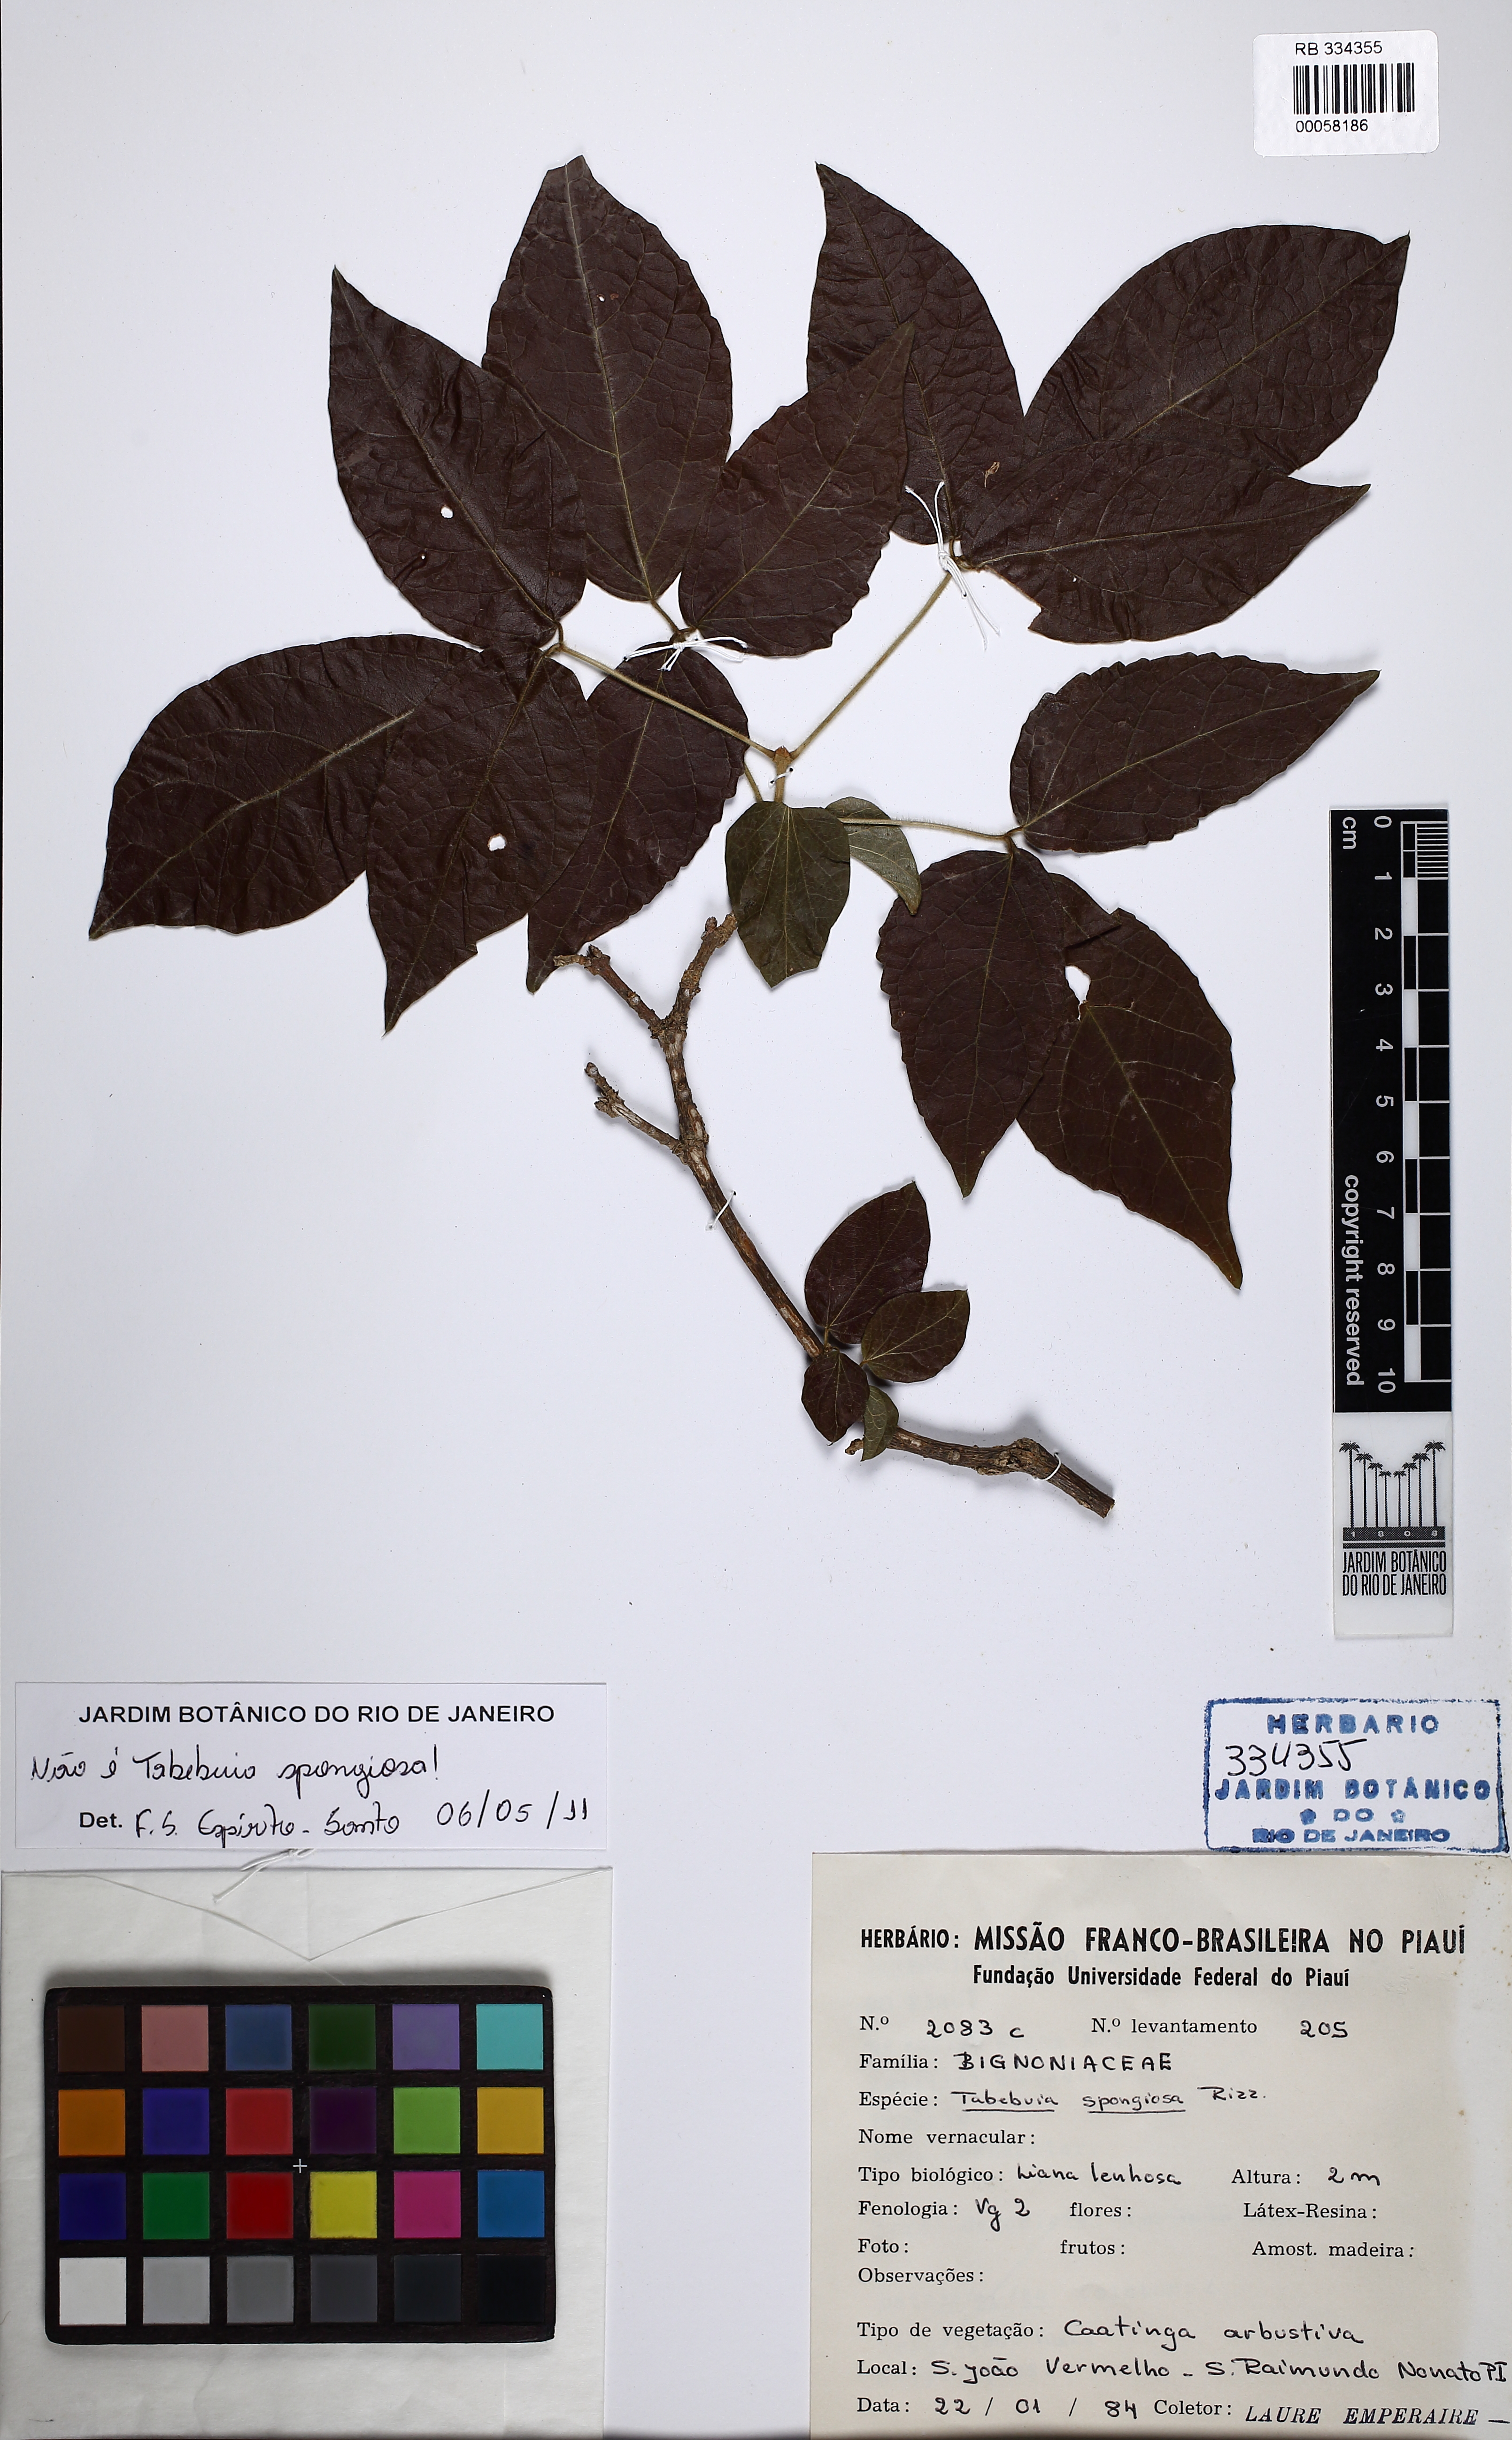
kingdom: Plantae
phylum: Tracheophyta
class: Magnoliopsida
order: Lamiales
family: Bignoniaceae
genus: Tanaecium
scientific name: Tanaecium parviflorum
